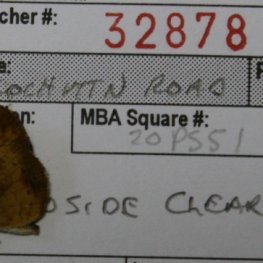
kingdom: Animalia
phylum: Arthropoda
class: Insecta
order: Lepidoptera
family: Nymphalidae
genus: Phyciodes
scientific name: Phyciodes tharos
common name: Northern Crescent
